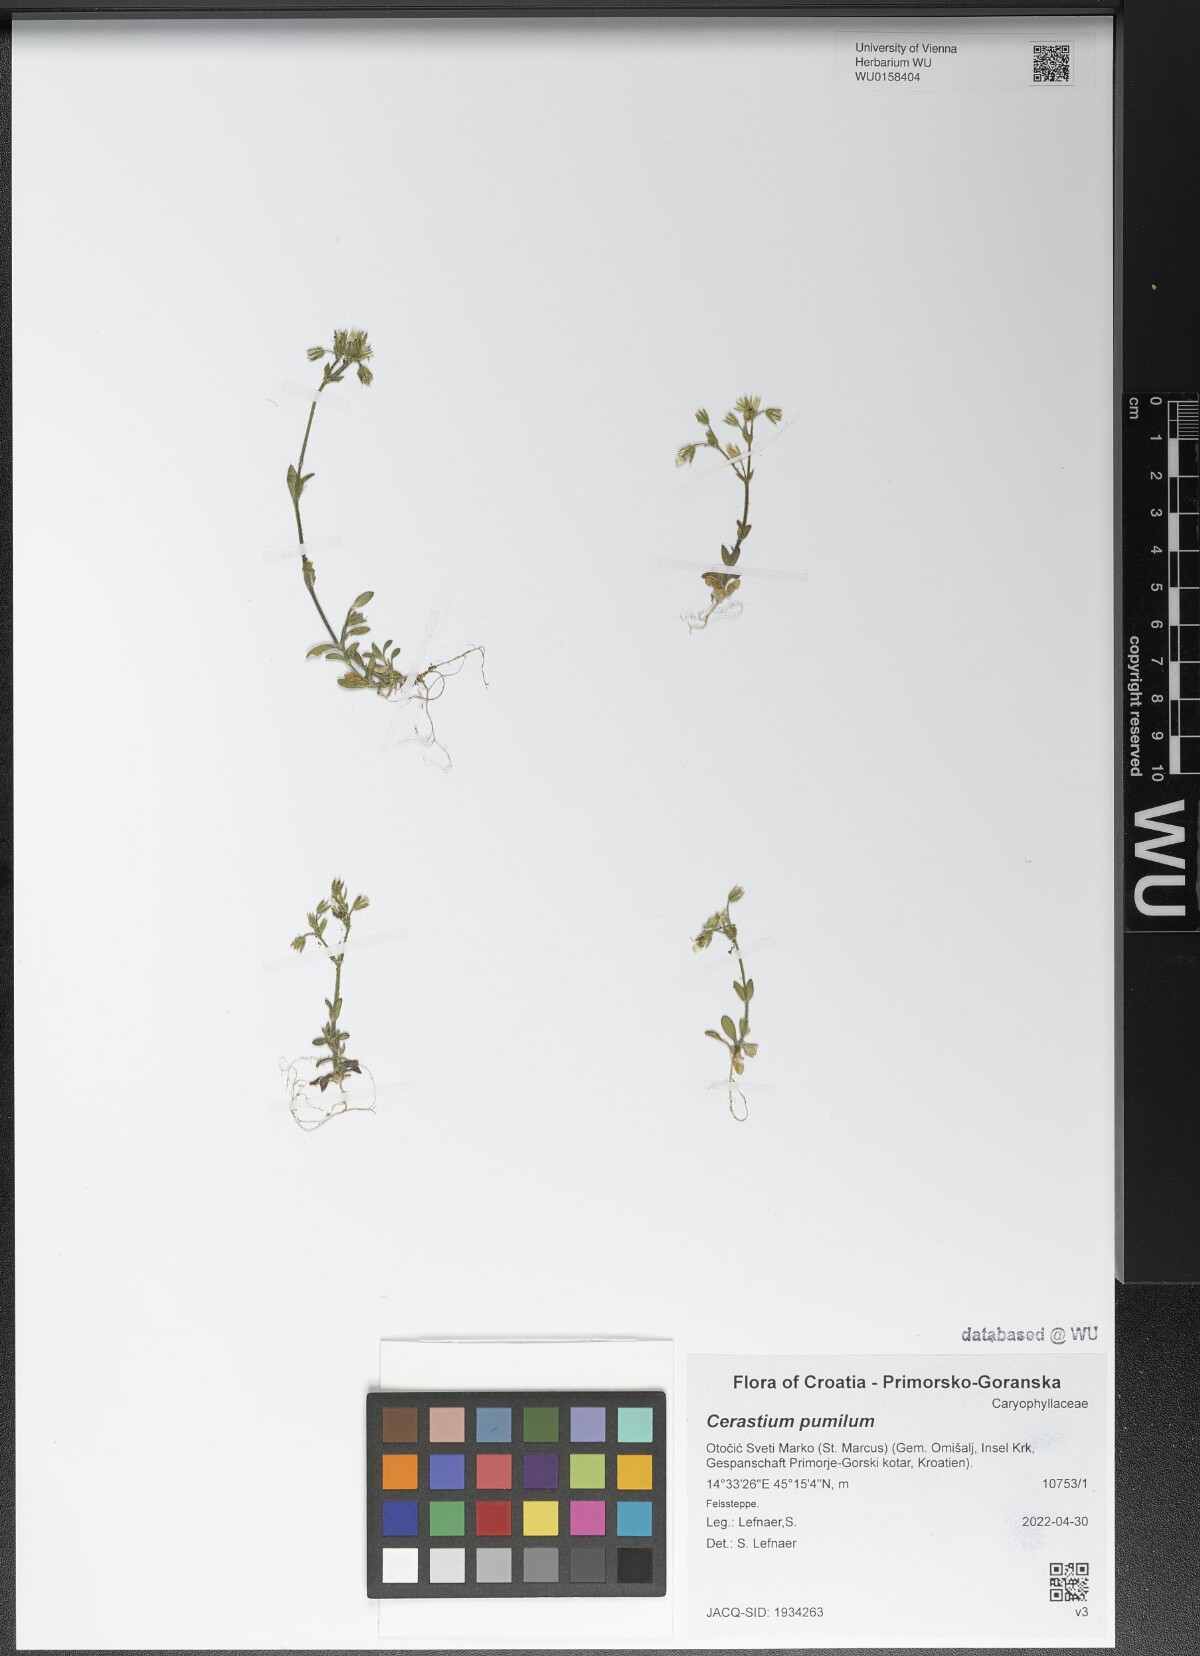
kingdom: Plantae
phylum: Tracheophyta
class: Magnoliopsida
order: Caryophyllales
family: Caryophyllaceae
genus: Cerastium
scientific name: Cerastium pumilum
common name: Dwarf mouse-ear
